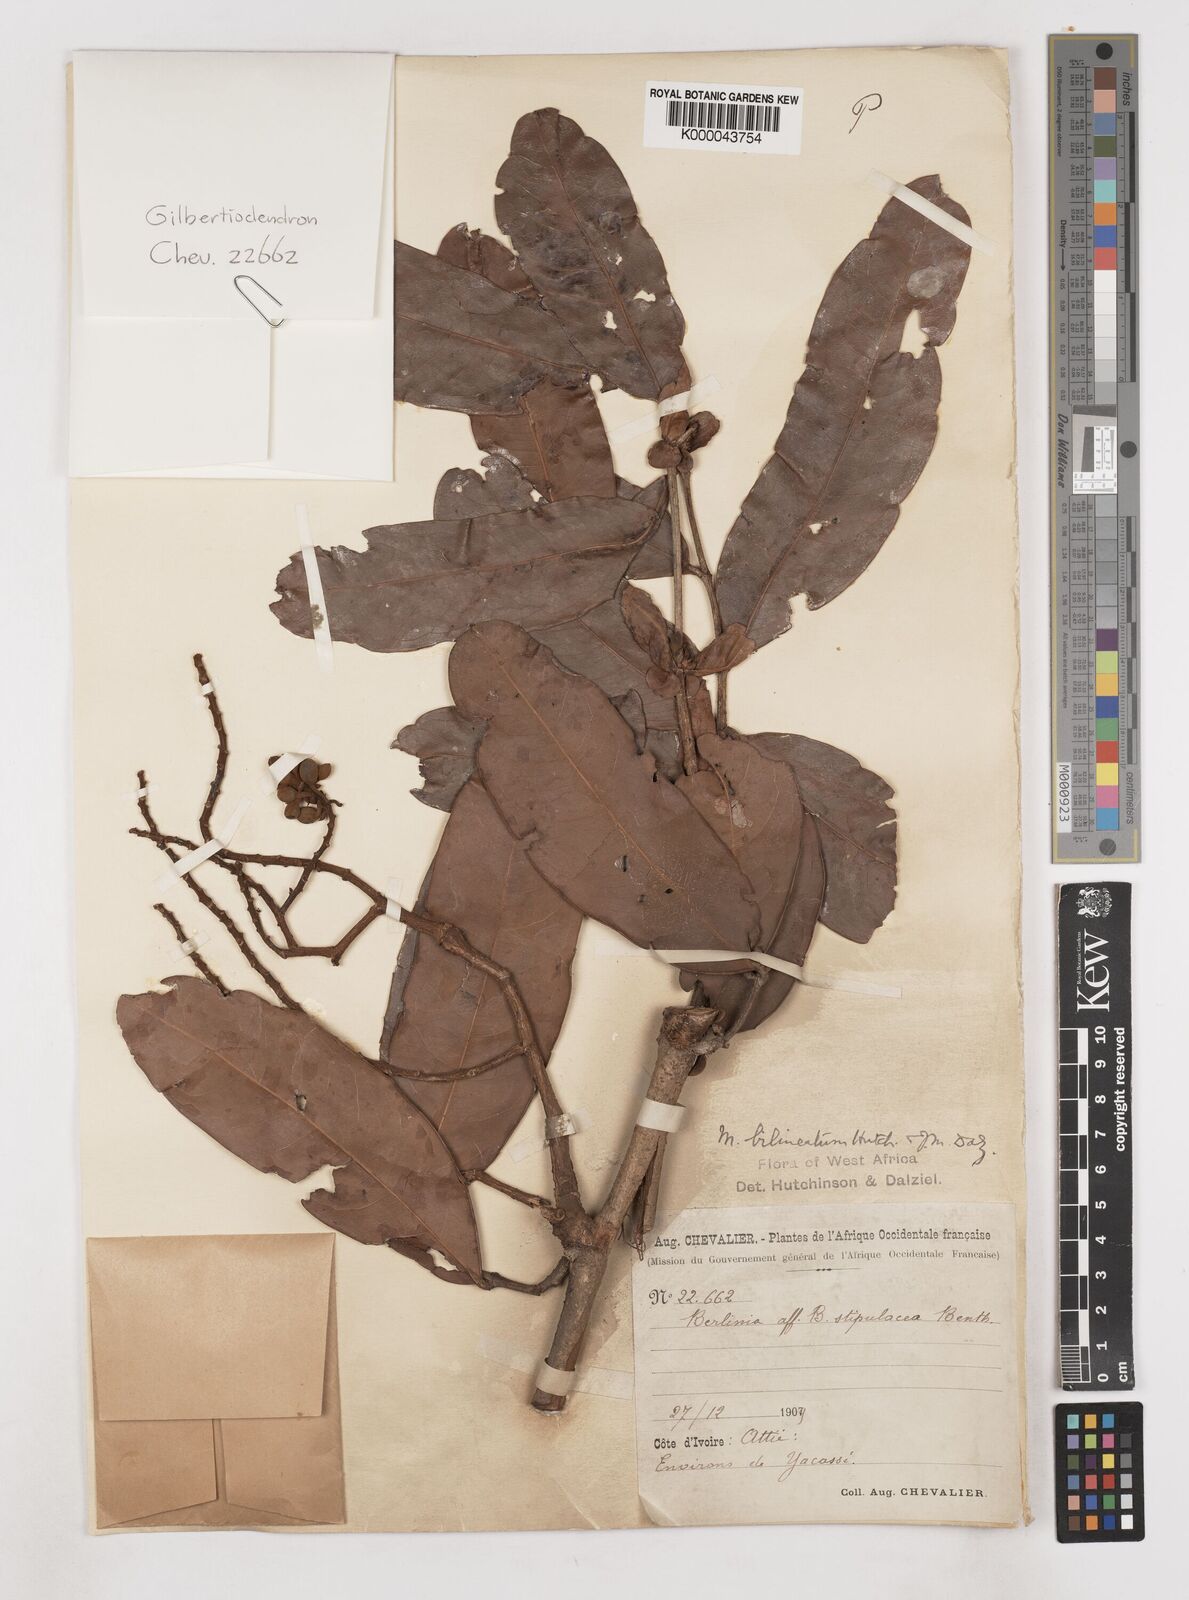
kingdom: Plantae
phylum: Tracheophyta
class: Magnoliopsida
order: Fabales
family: Fabaceae
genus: Gilbertiodendron
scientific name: Gilbertiodendron
